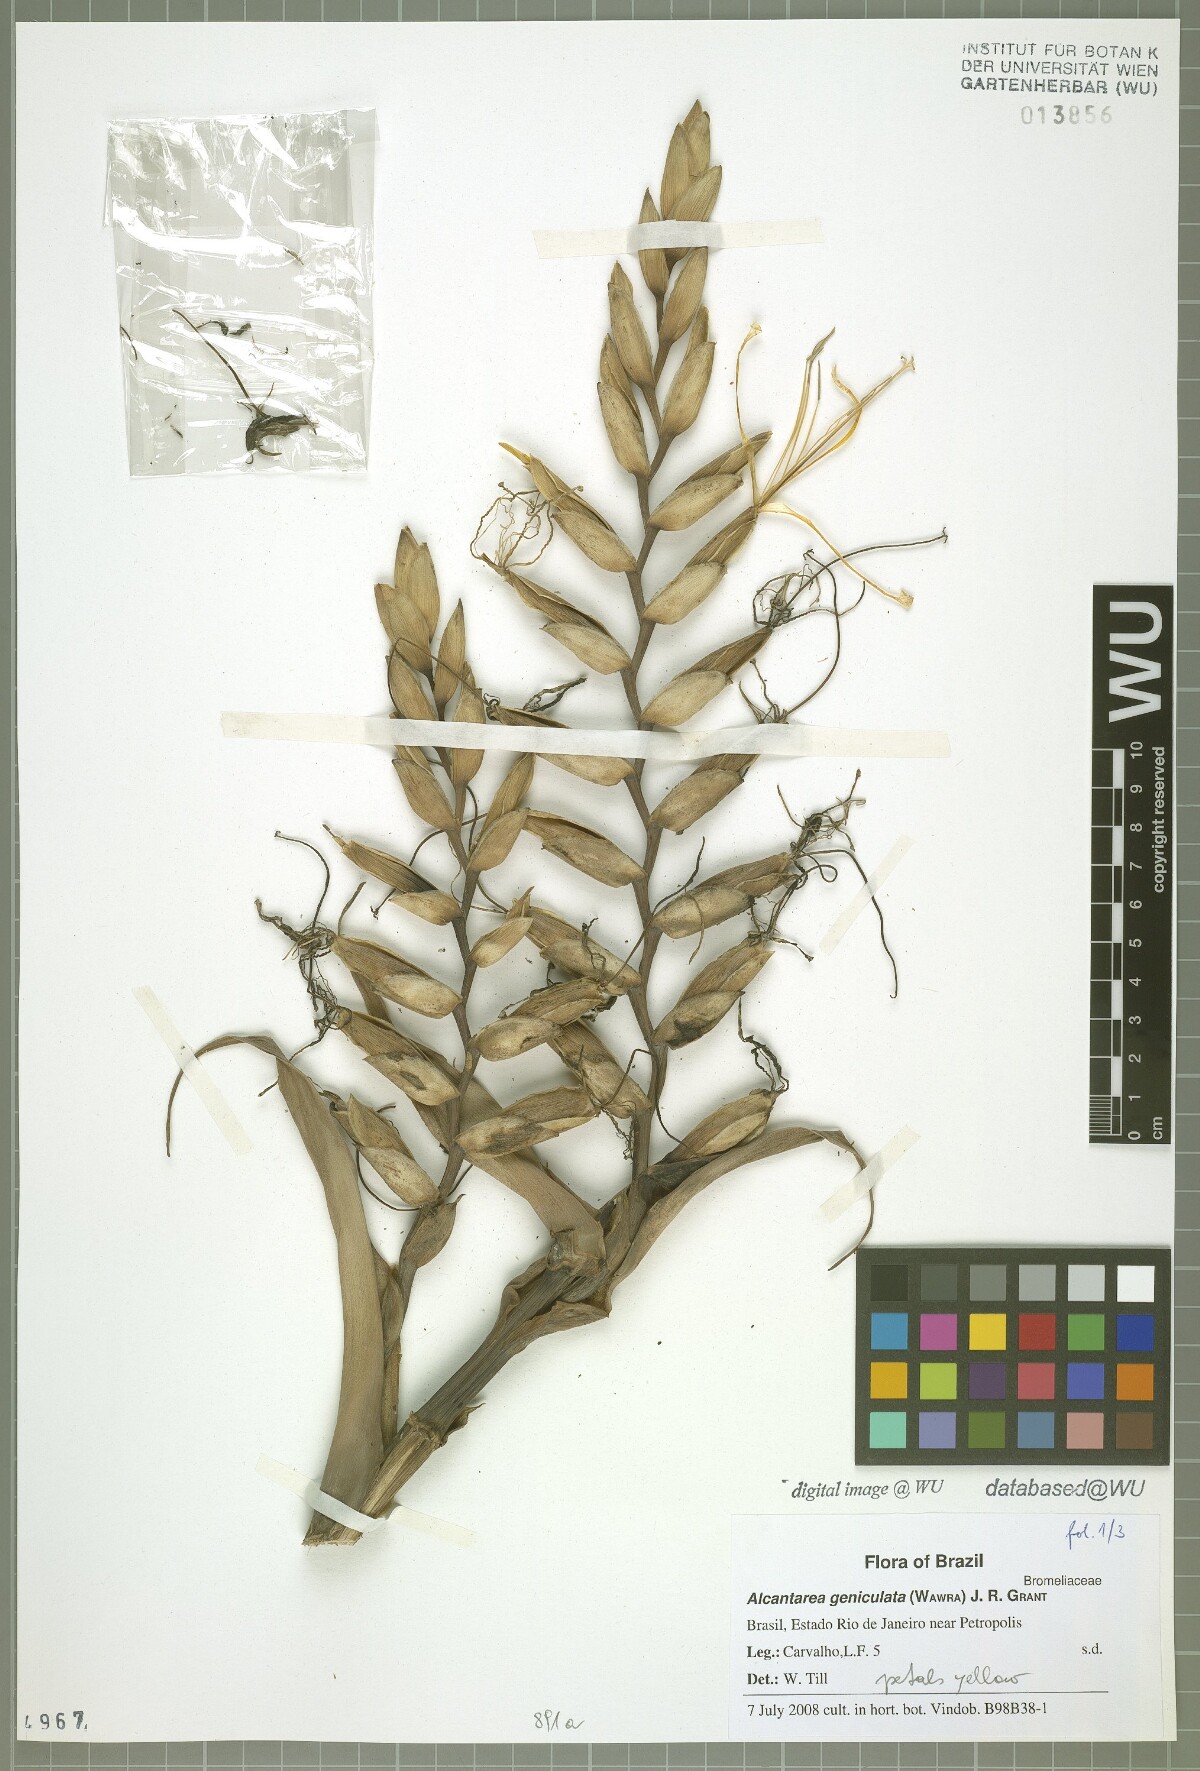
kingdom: Plantae
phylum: Tracheophyta
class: Liliopsida
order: Poales
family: Bromeliaceae
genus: Alcantarea
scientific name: Alcantarea geniculata
